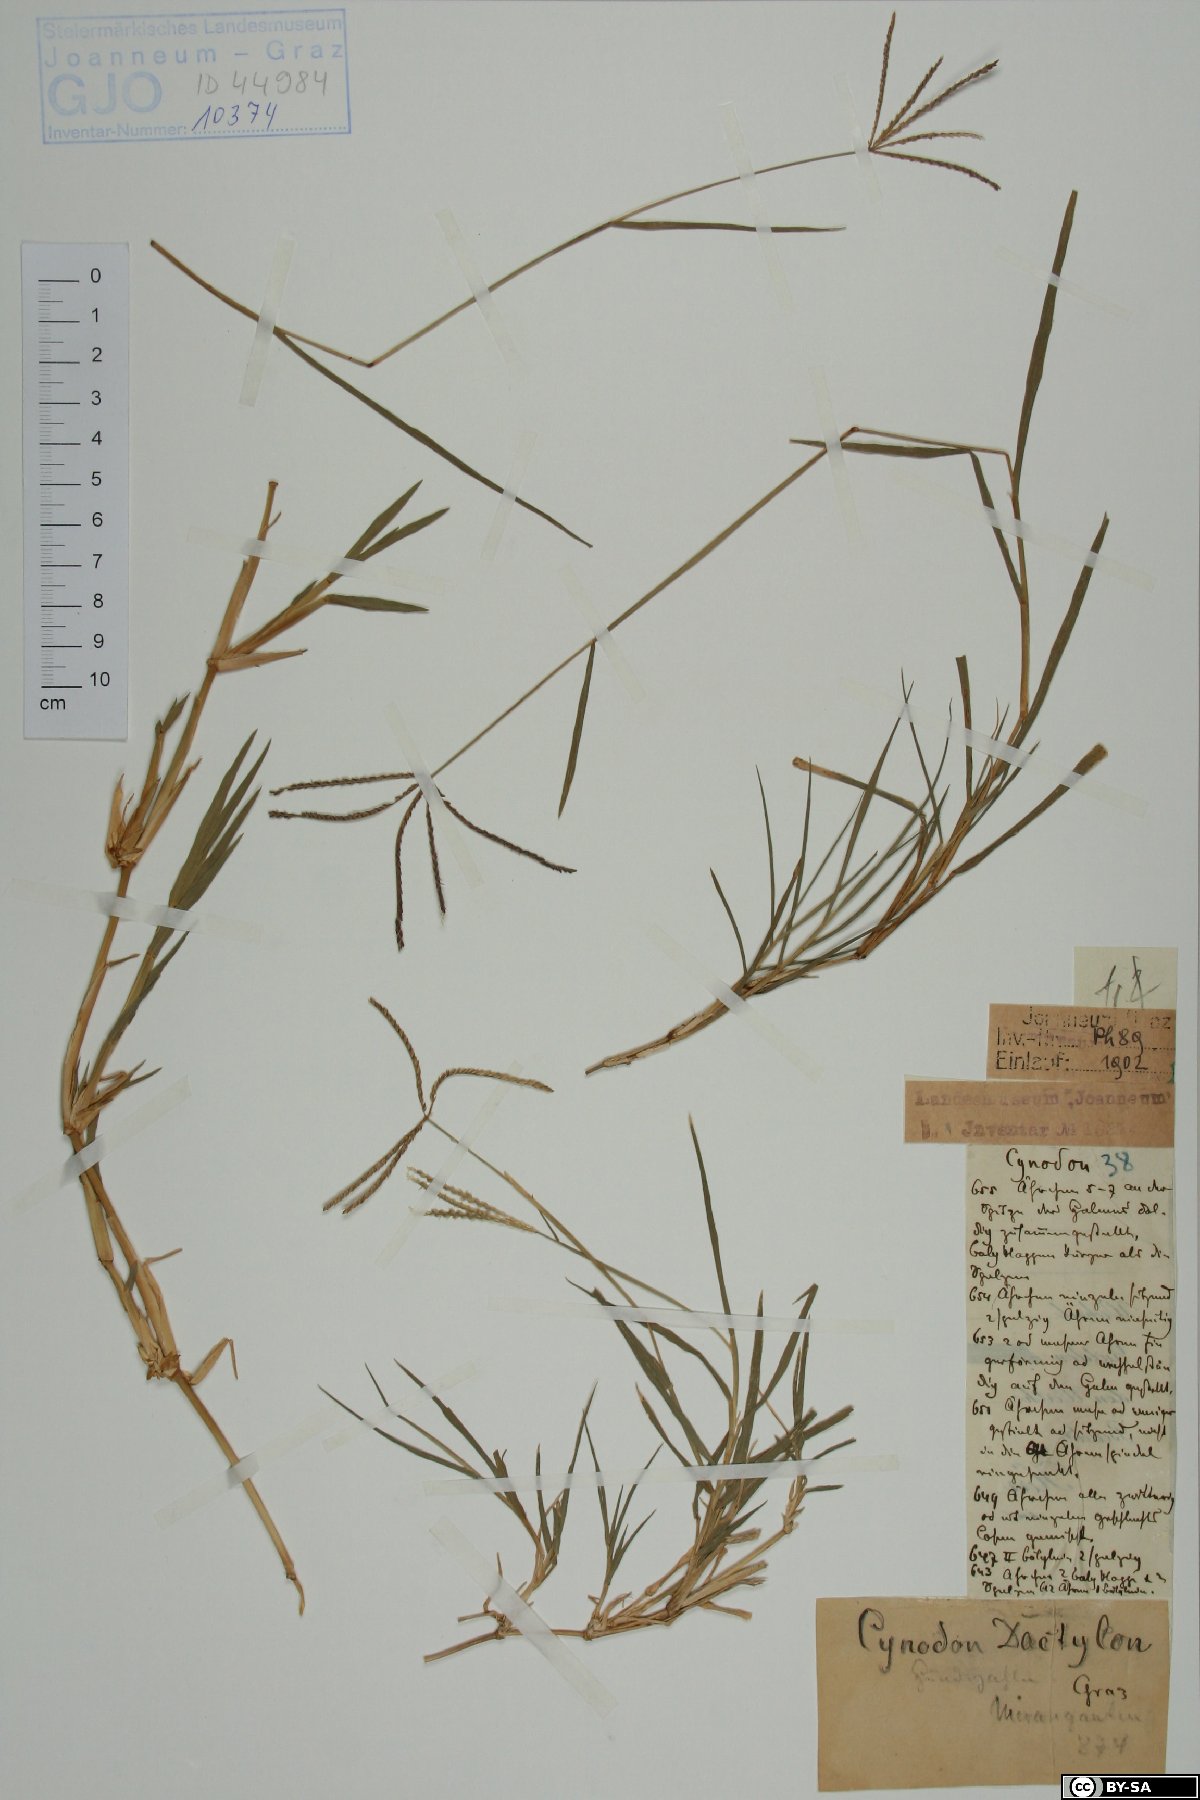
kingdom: Plantae
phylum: Tracheophyta
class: Liliopsida
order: Poales
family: Poaceae
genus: Cynodon
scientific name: Cynodon dactylon
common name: Bermuda grass
